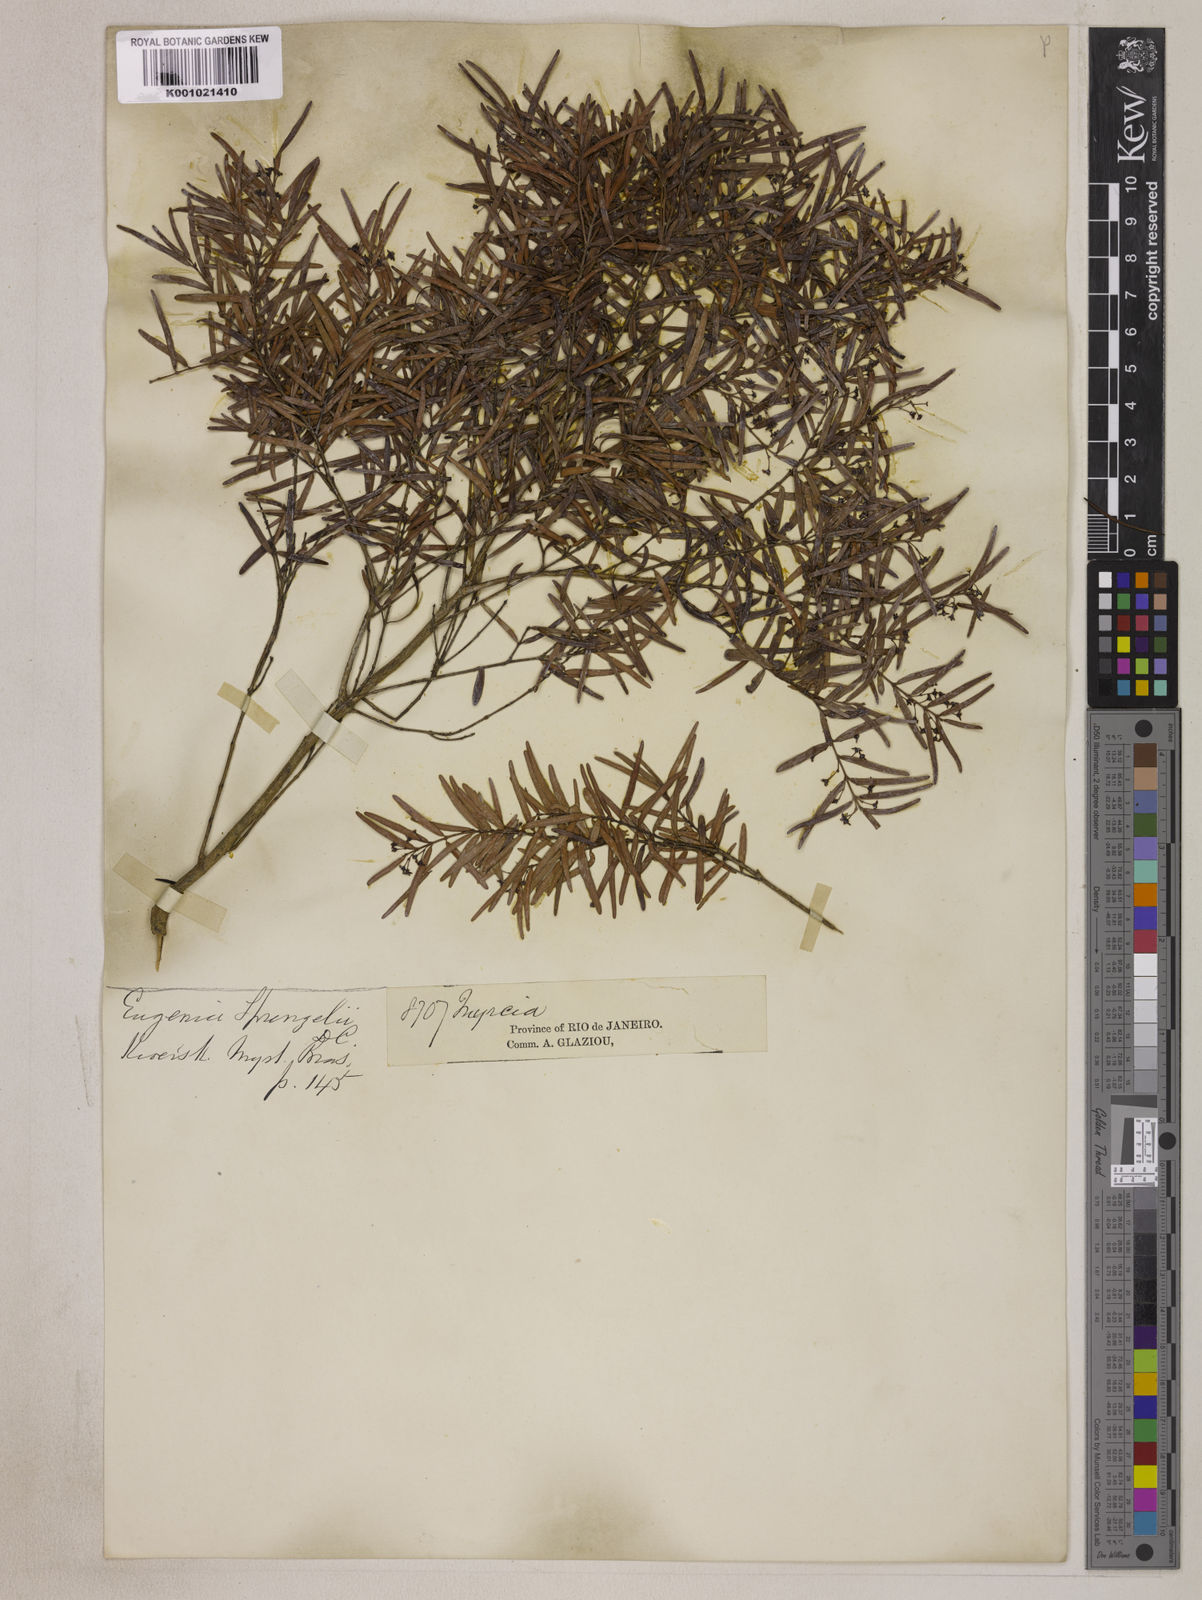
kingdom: Plantae
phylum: Tracheophyta
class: Magnoliopsida
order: Myrtales
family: Myrtaceae
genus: Eugenia
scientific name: Eugenia sprengelii
